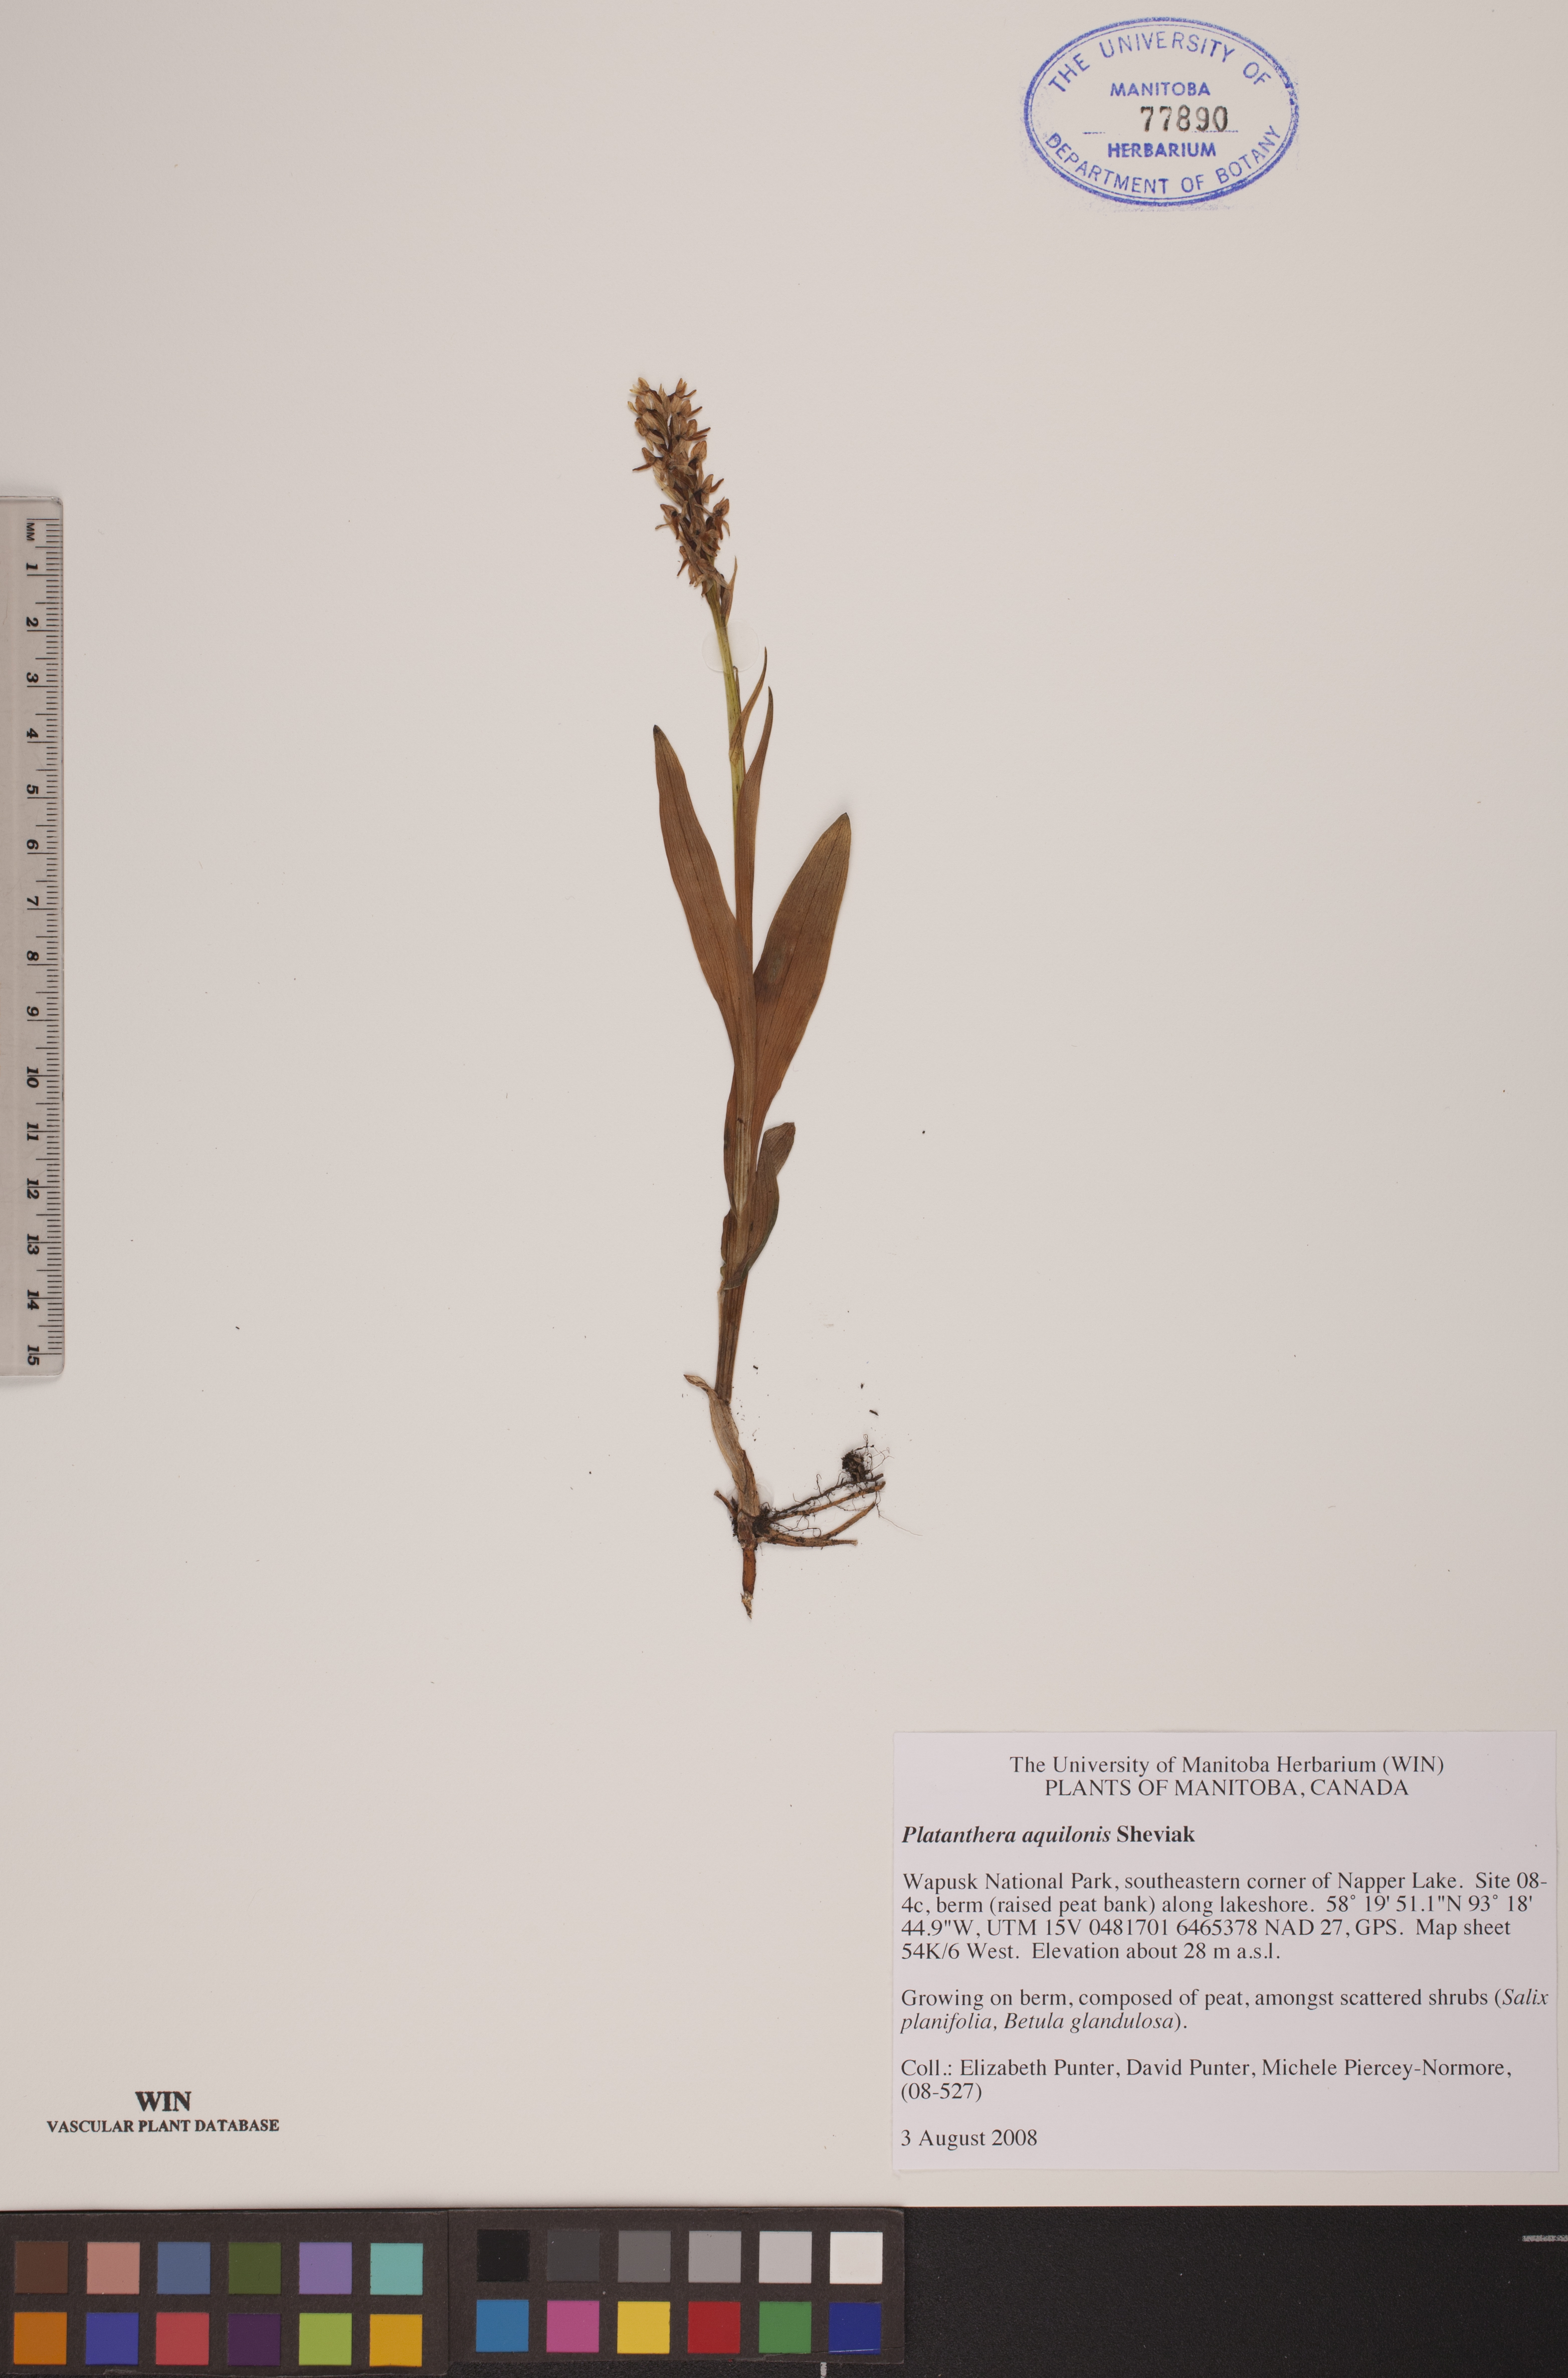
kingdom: Plantae
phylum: Tracheophyta
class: Liliopsida
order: Asparagales
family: Orchidaceae
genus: Platanthera
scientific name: Platanthera aquilonis
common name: Northern green orchid
